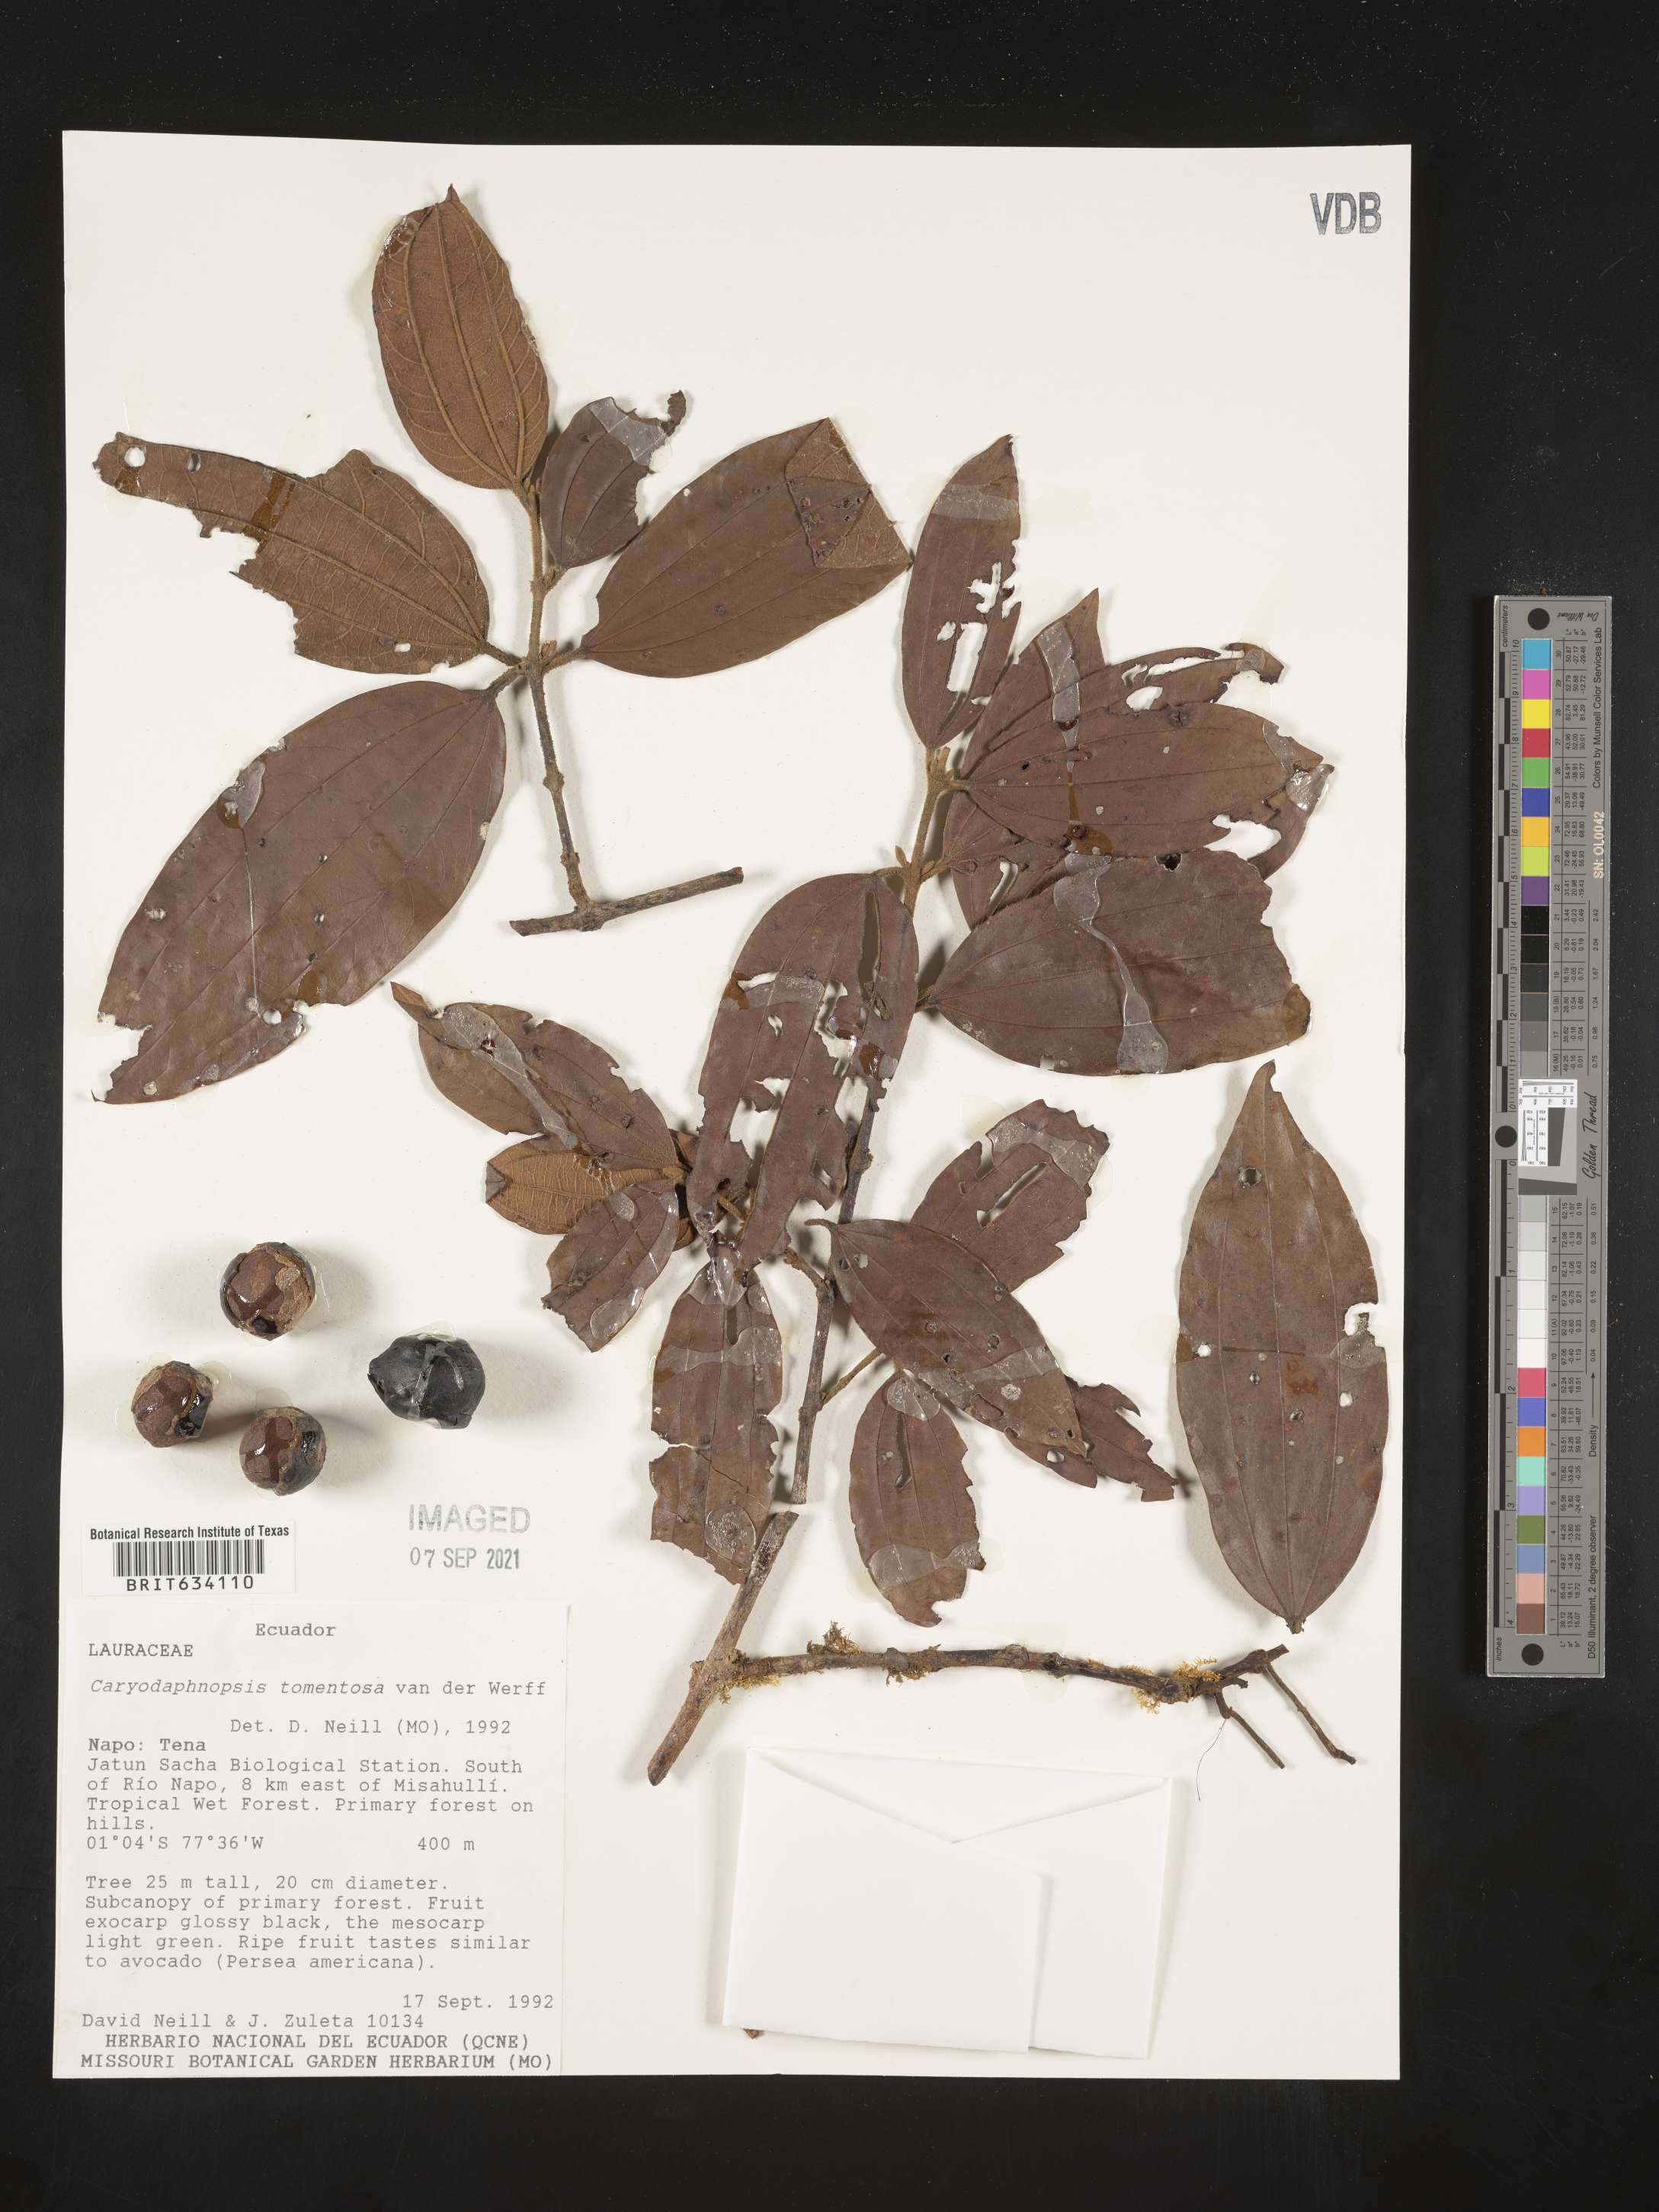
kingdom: Plantae
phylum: Tracheophyta
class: Magnoliopsida
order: Laurales
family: Lauraceae
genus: Caryodaphnopsis
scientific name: Caryodaphnopsis
